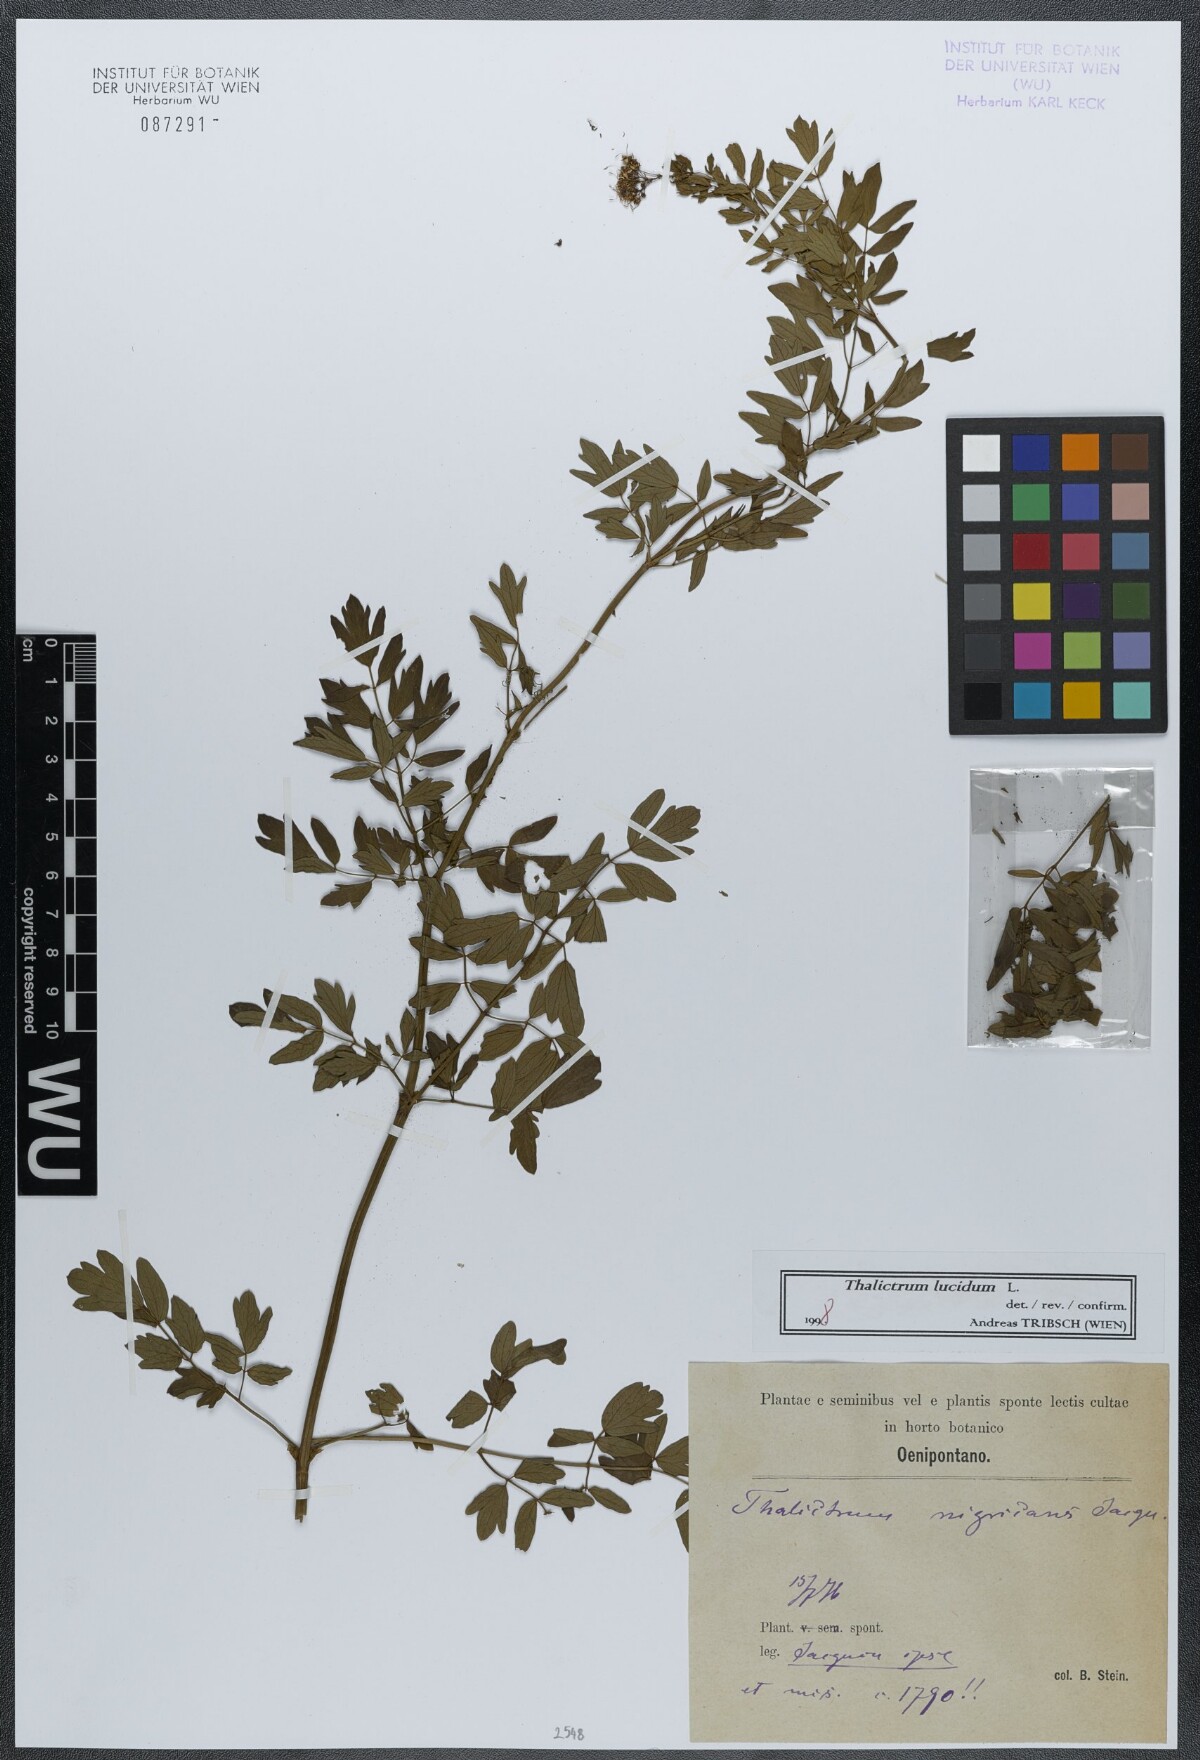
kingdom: Plantae
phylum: Tracheophyta
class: Magnoliopsida
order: Ranunculales
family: Ranunculaceae
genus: Thalictrum
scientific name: Thalictrum lucidum
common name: Shining meadow-rue
